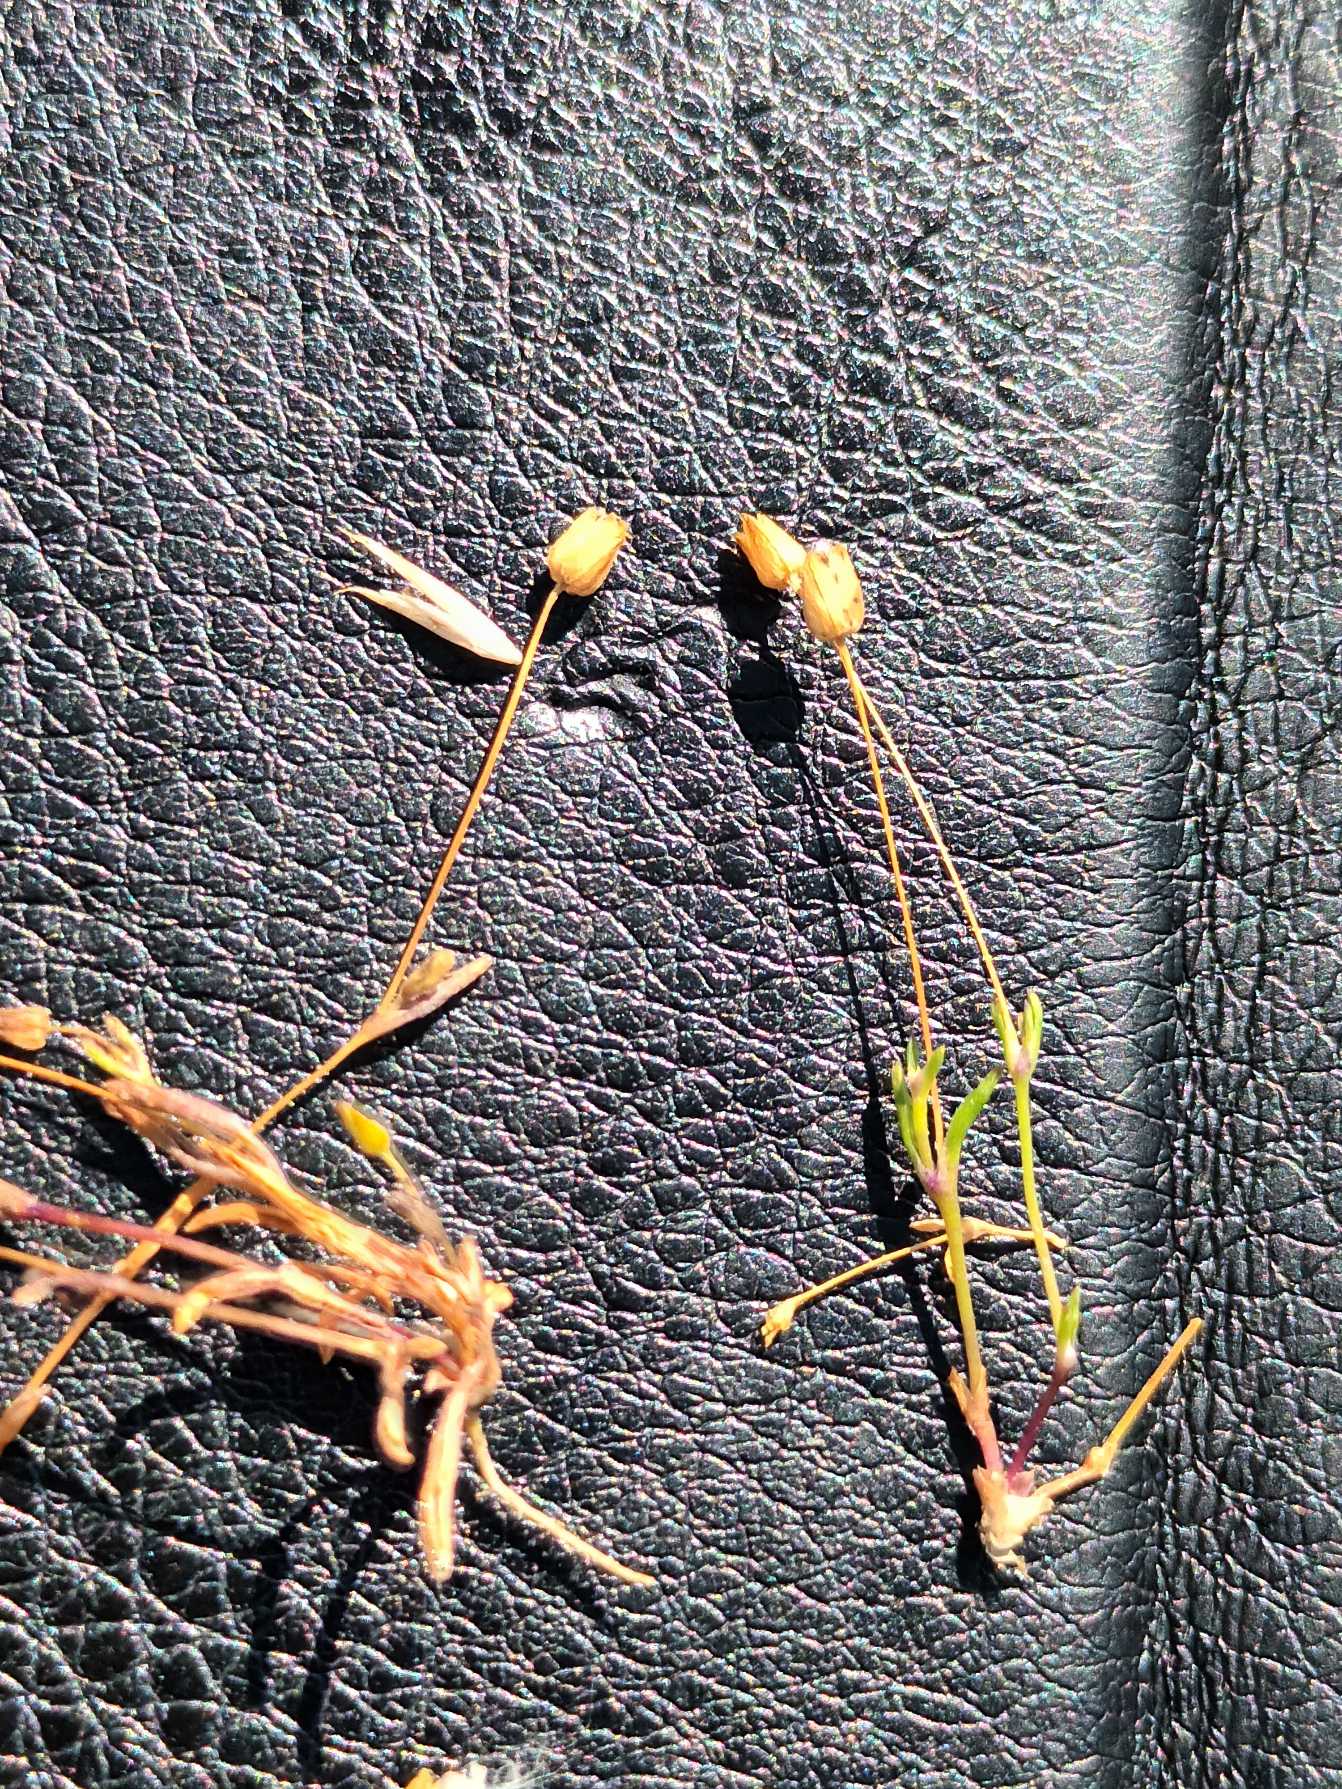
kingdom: Plantae
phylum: Tracheophyta
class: Magnoliopsida
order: Caryophyllales
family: Caryophyllaceae
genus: Sagina
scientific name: Sagina maritima
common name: Strand-firling
